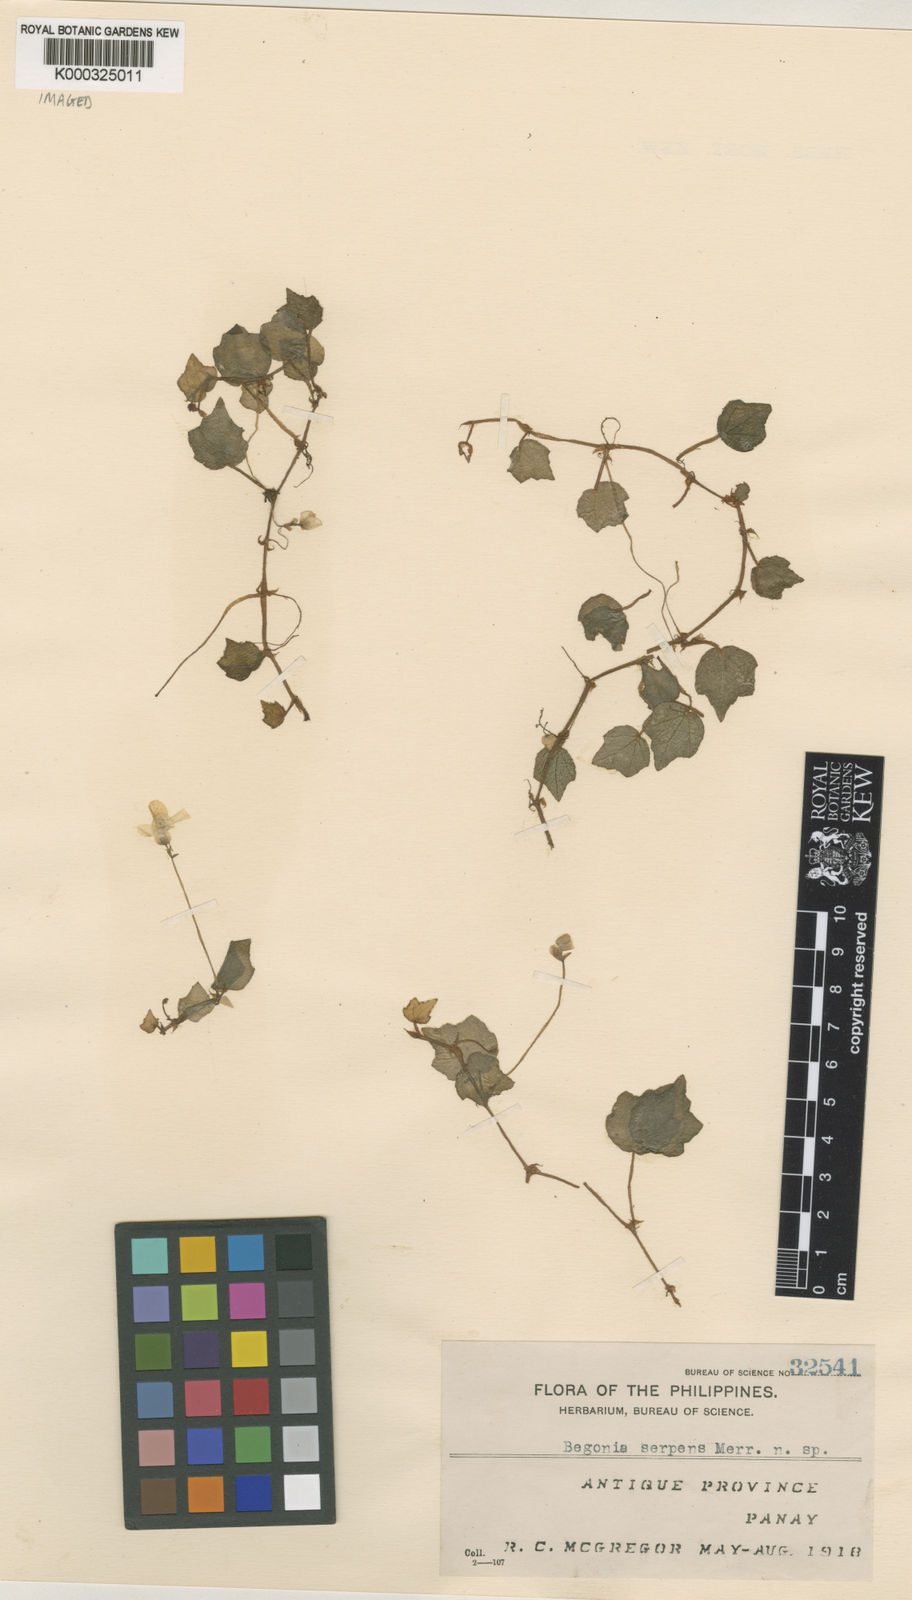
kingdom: Plantae
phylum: Tracheophyta
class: Magnoliopsida
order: Cucurbitales
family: Begoniaceae
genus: Begonia
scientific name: Begonia serpens
